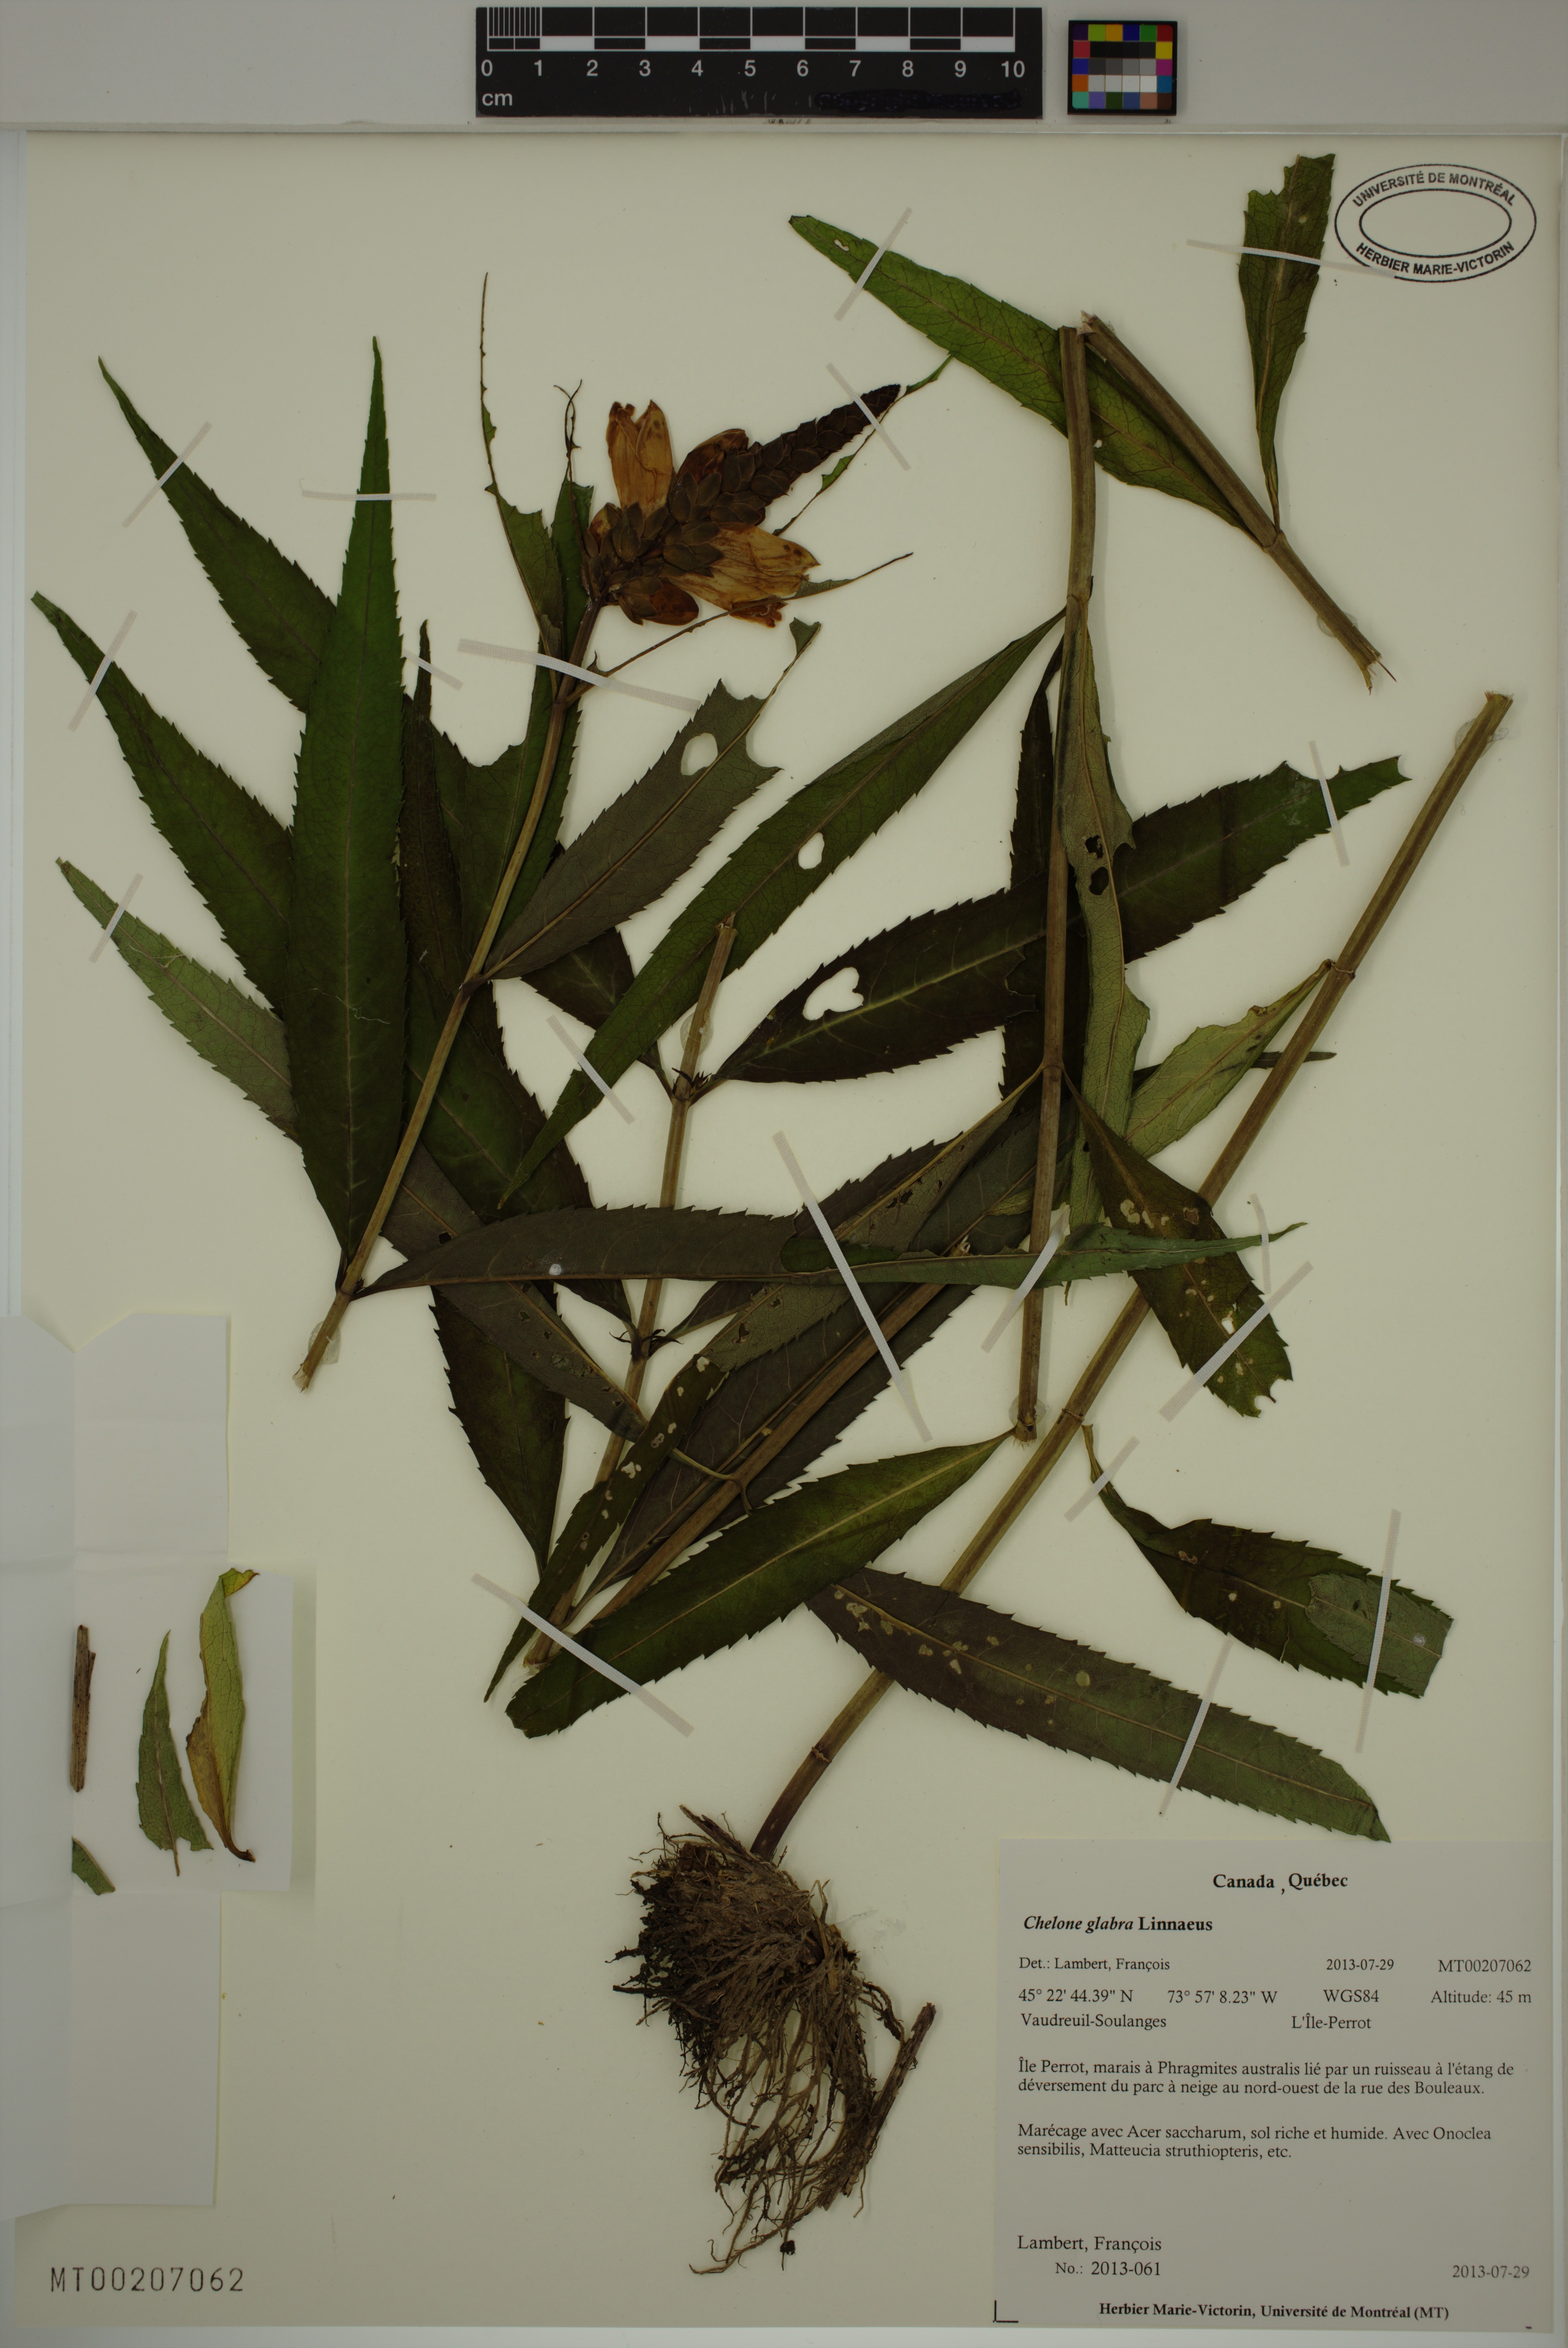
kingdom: Plantae
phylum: Tracheophyta
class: Magnoliopsida
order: Lamiales
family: Plantaginaceae
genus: Chelone
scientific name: Chelone glabra
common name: Snakehead
